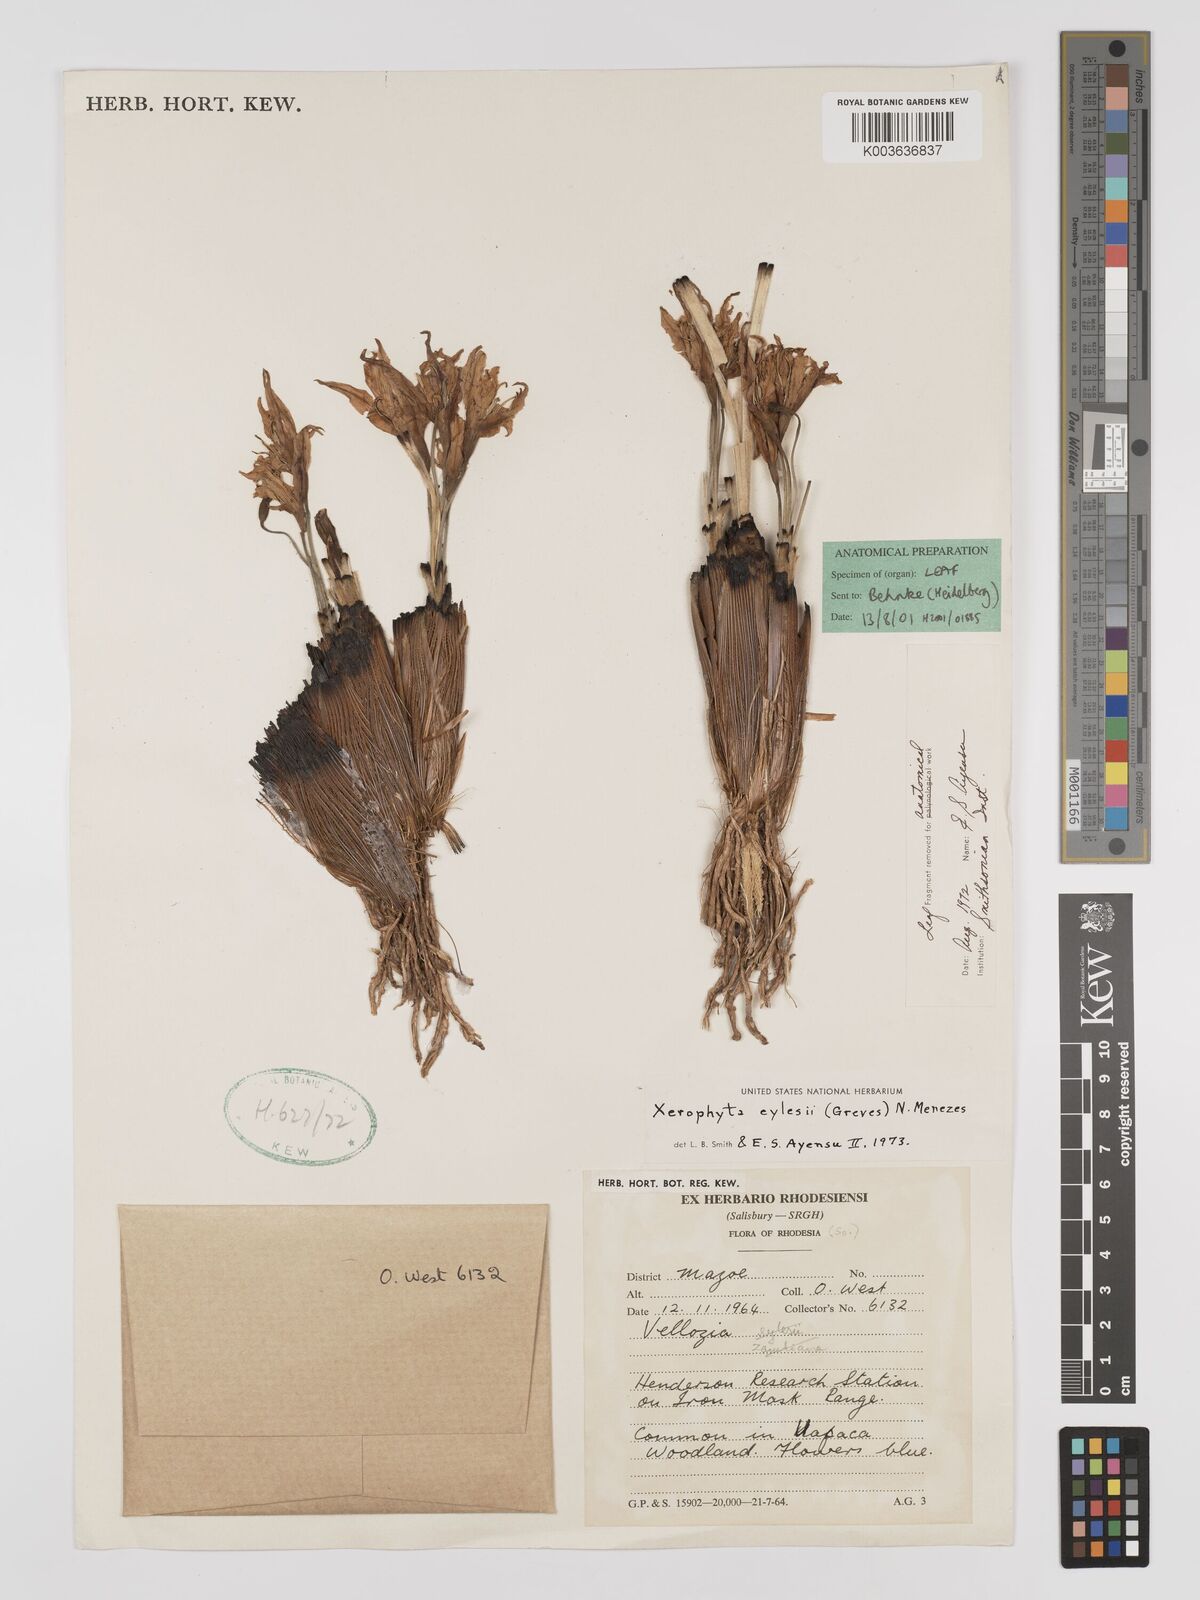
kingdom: Plantae
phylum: Tracheophyta
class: Liliopsida
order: Pandanales
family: Velloziaceae
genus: Xerophyta
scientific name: Xerophyta eylesii
